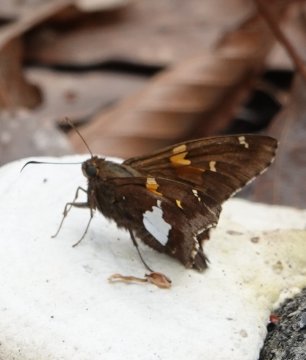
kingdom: Animalia
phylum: Arthropoda
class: Insecta
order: Lepidoptera
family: Hesperiidae
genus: Epargyreus
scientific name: Epargyreus clarus
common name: Silver-spotted Skipper
